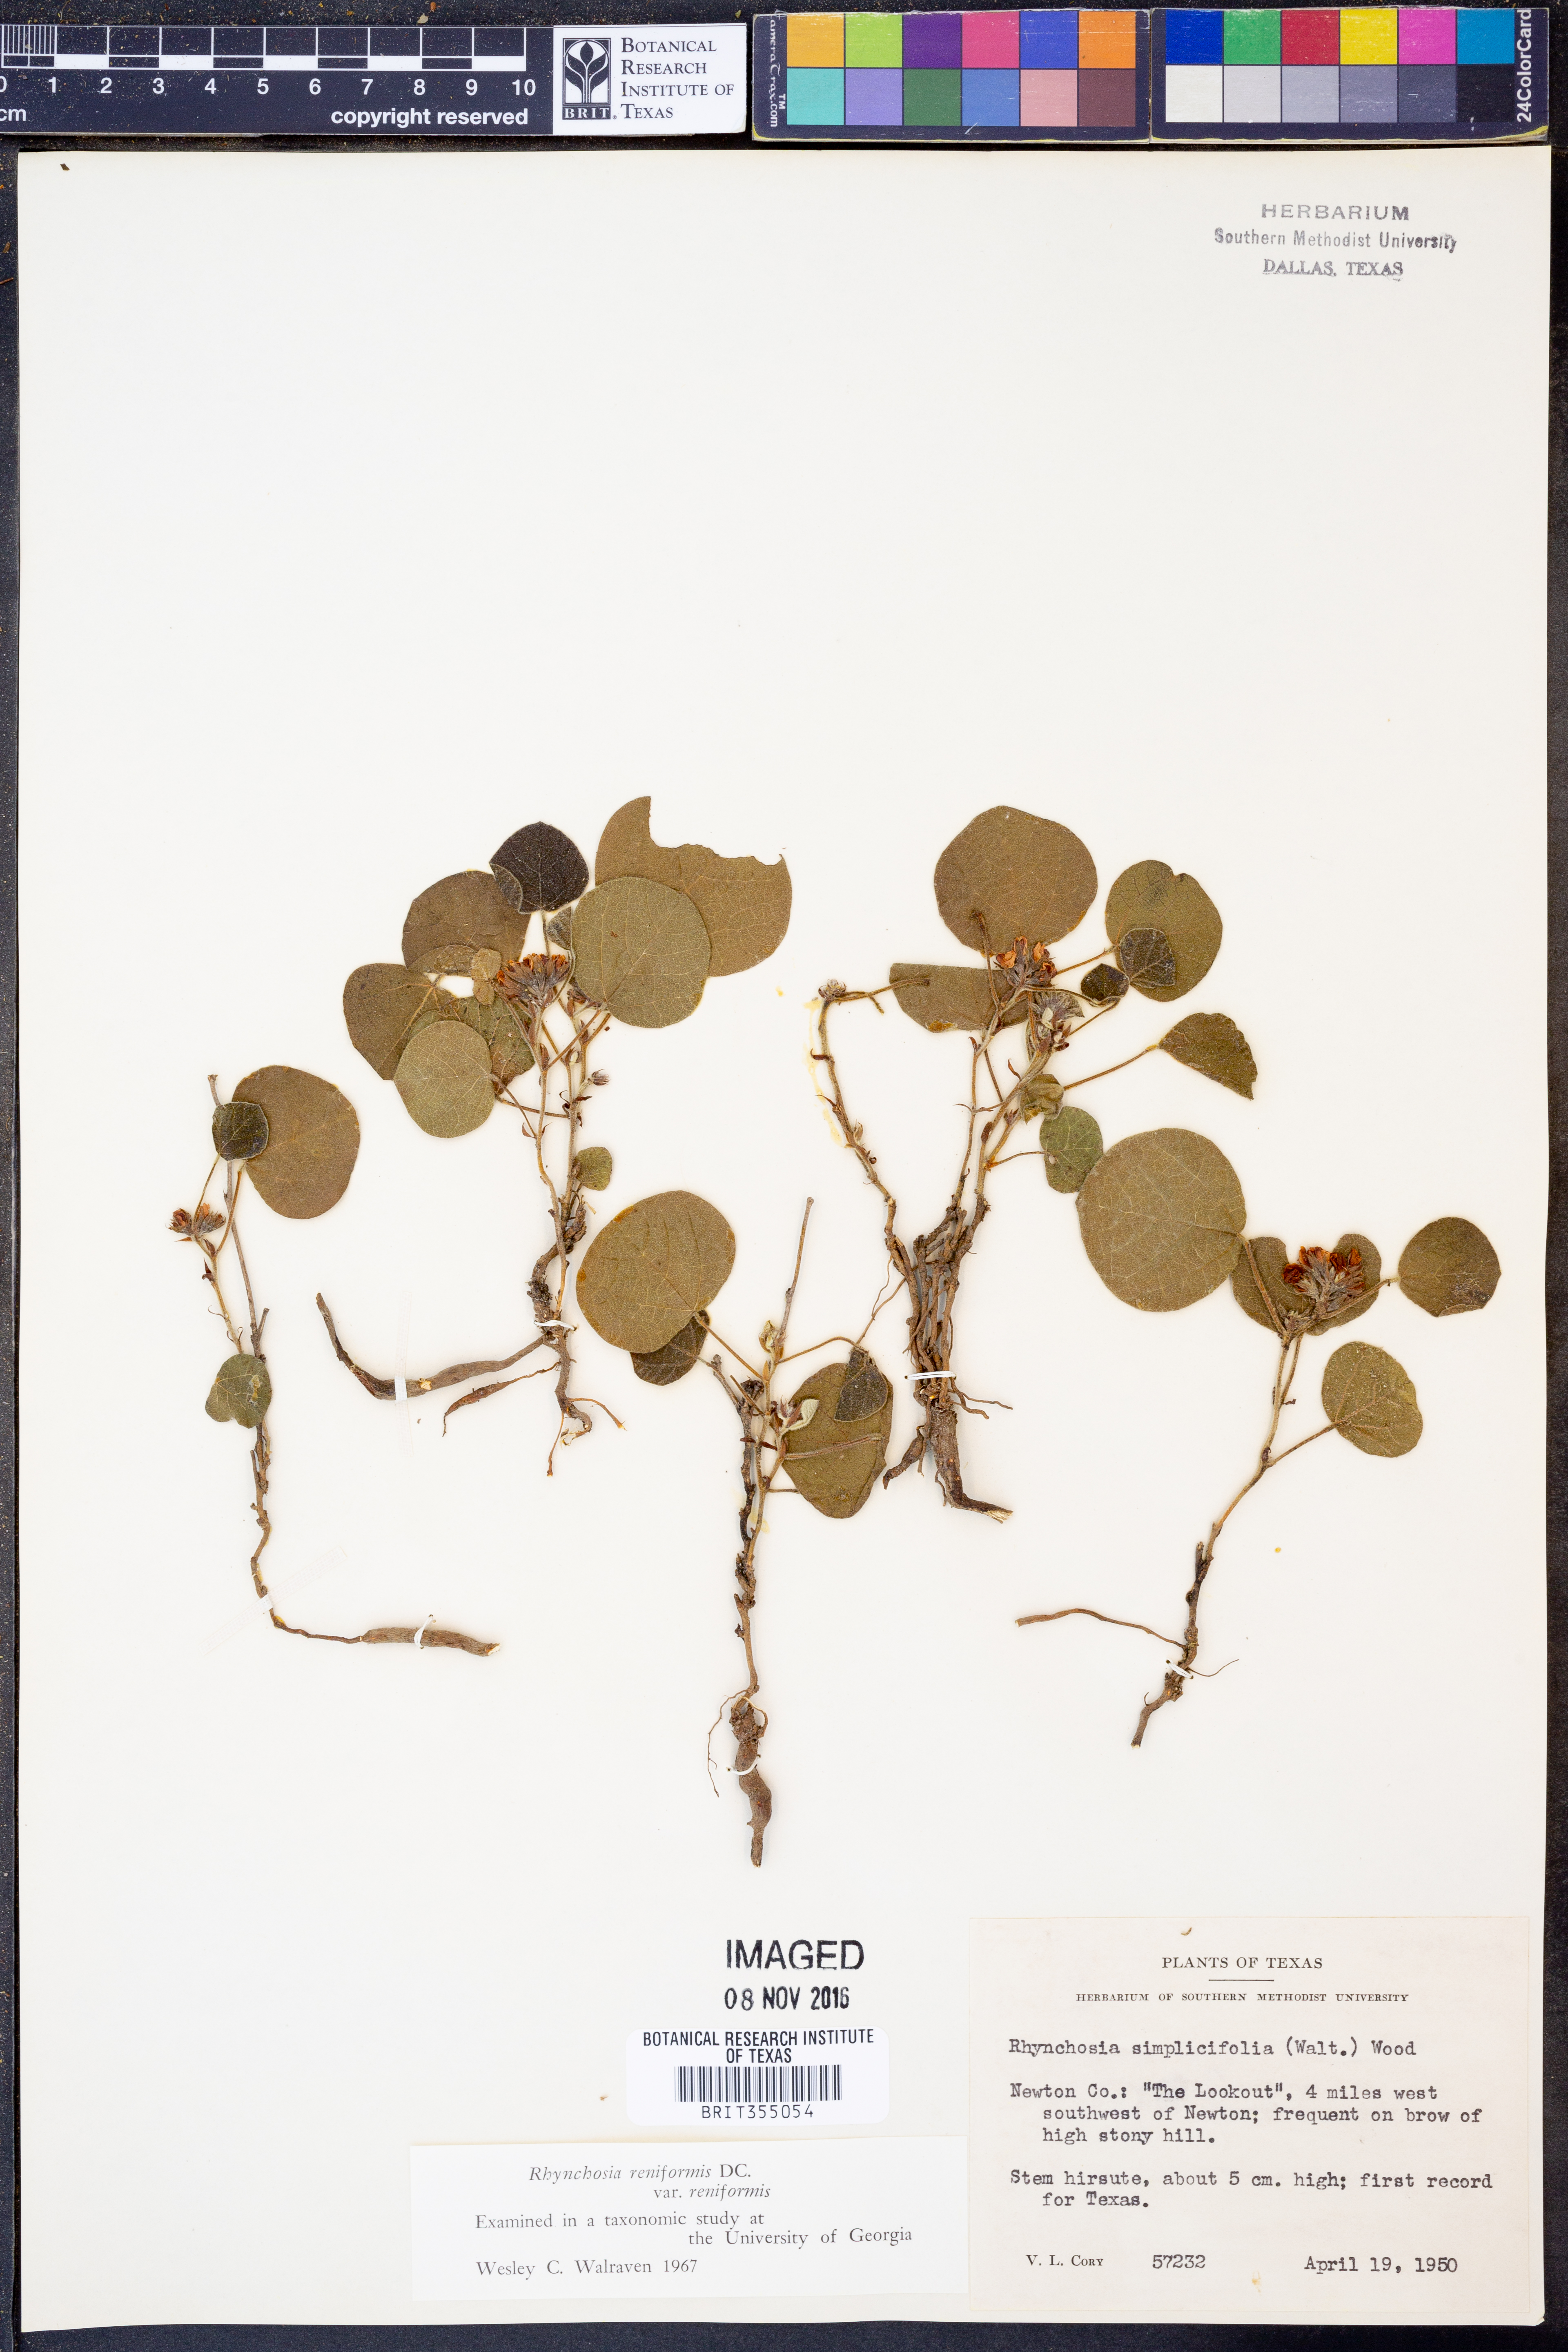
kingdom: Plantae
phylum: Tracheophyta
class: Magnoliopsida
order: Fabales
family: Fabaceae
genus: Rhynchosia
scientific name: Rhynchosia reniformis
